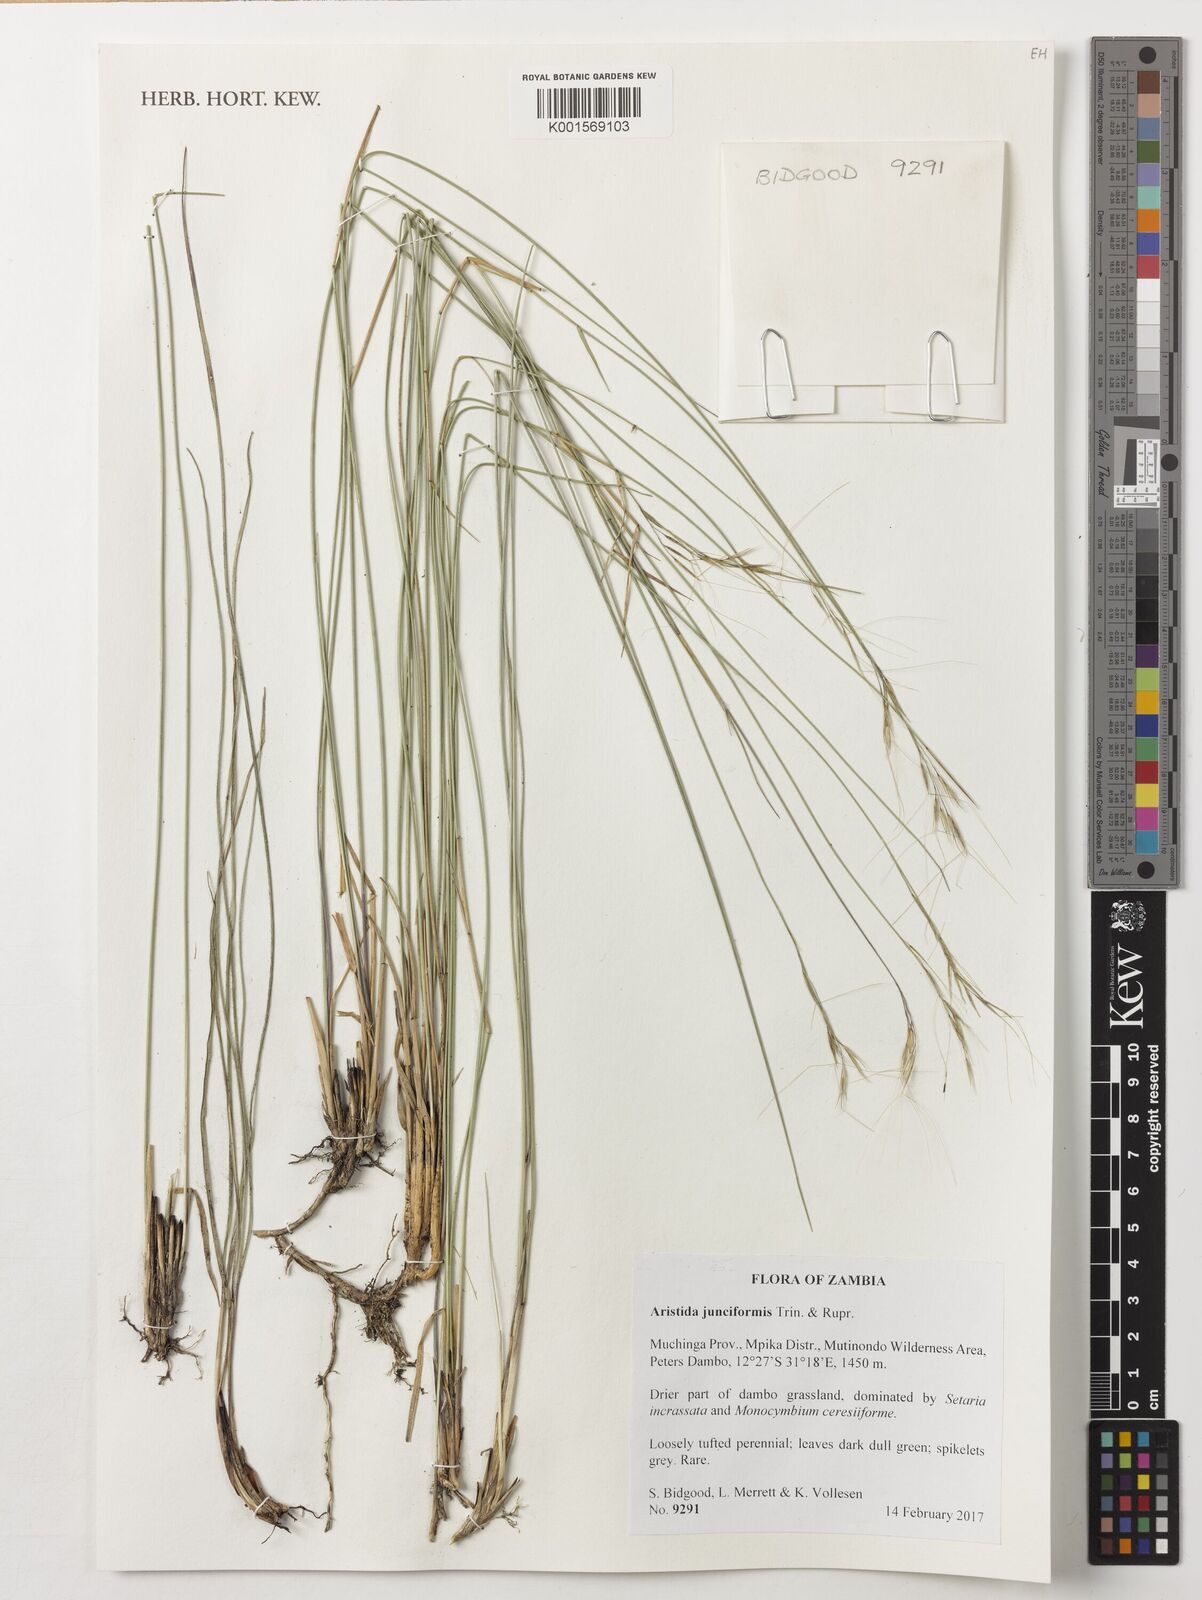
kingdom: Plantae
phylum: Tracheophyta
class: Liliopsida
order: Poales
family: Poaceae
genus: Aristida
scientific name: Aristida junciformis
